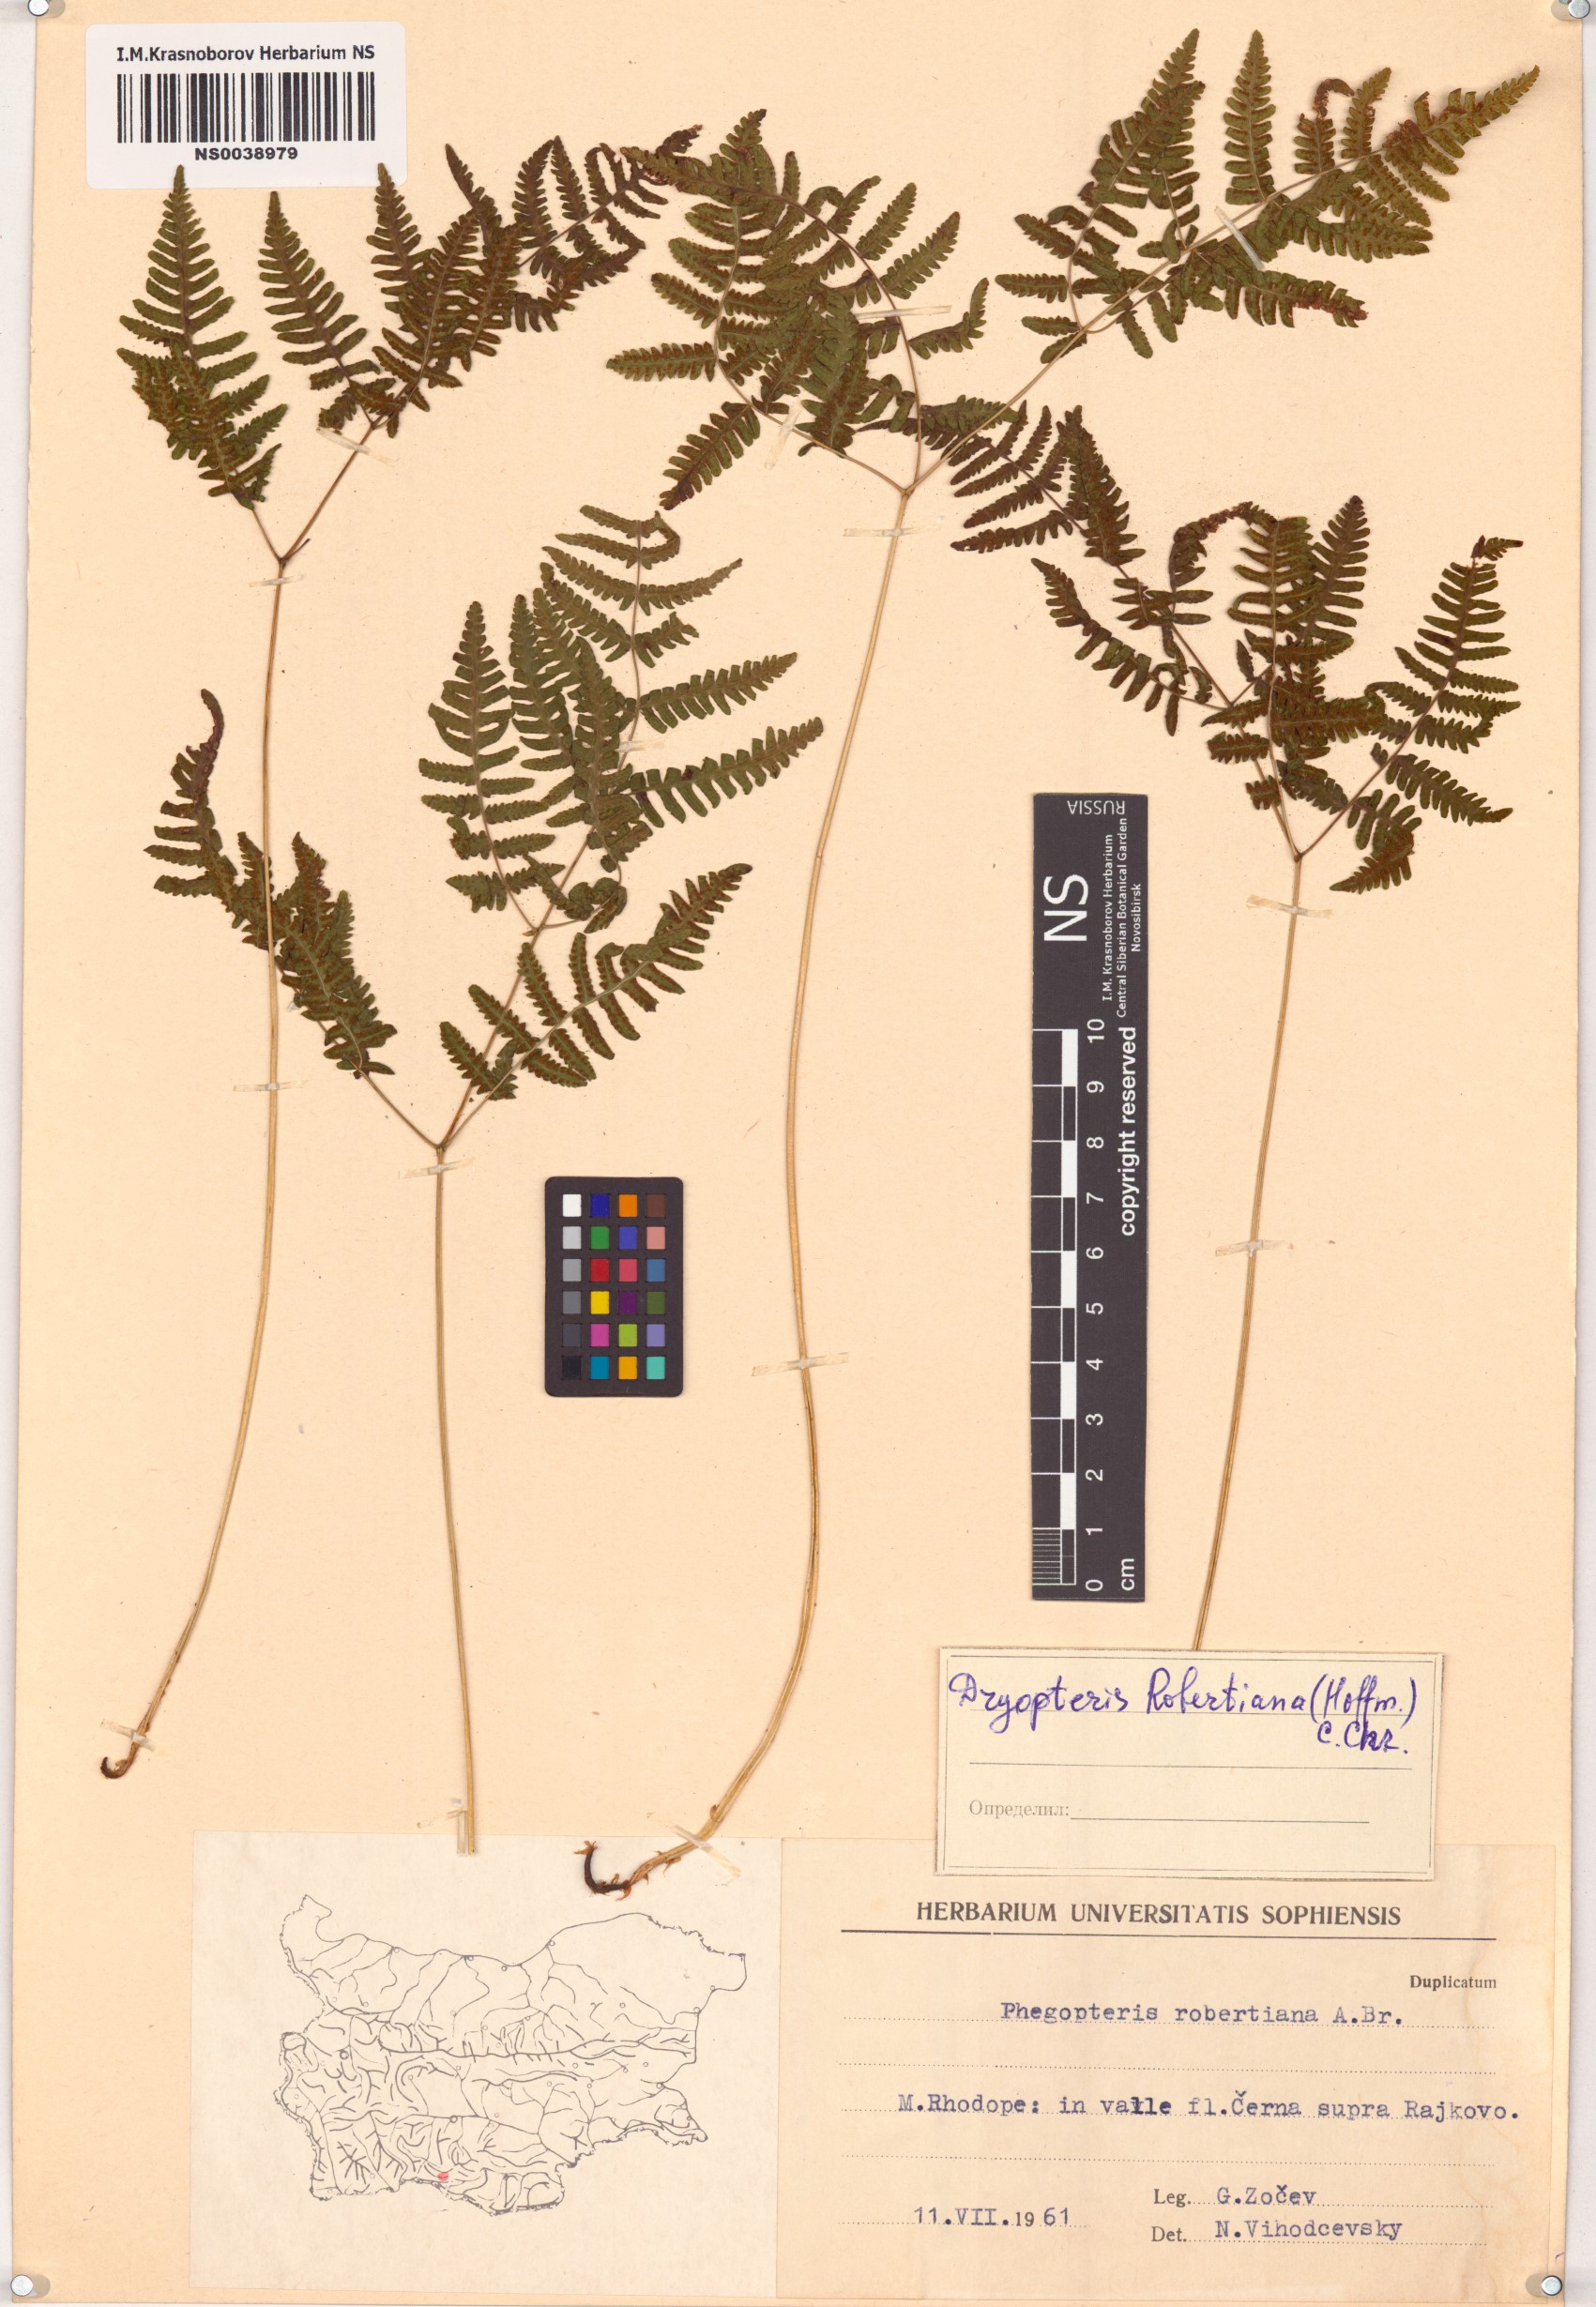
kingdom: Plantae
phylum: Tracheophyta
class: Polypodiopsida
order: Polypodiales
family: Cystopteridaceae
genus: Gymnocarpium
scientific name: Gymnocarpium robertianum
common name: Limestone fern
